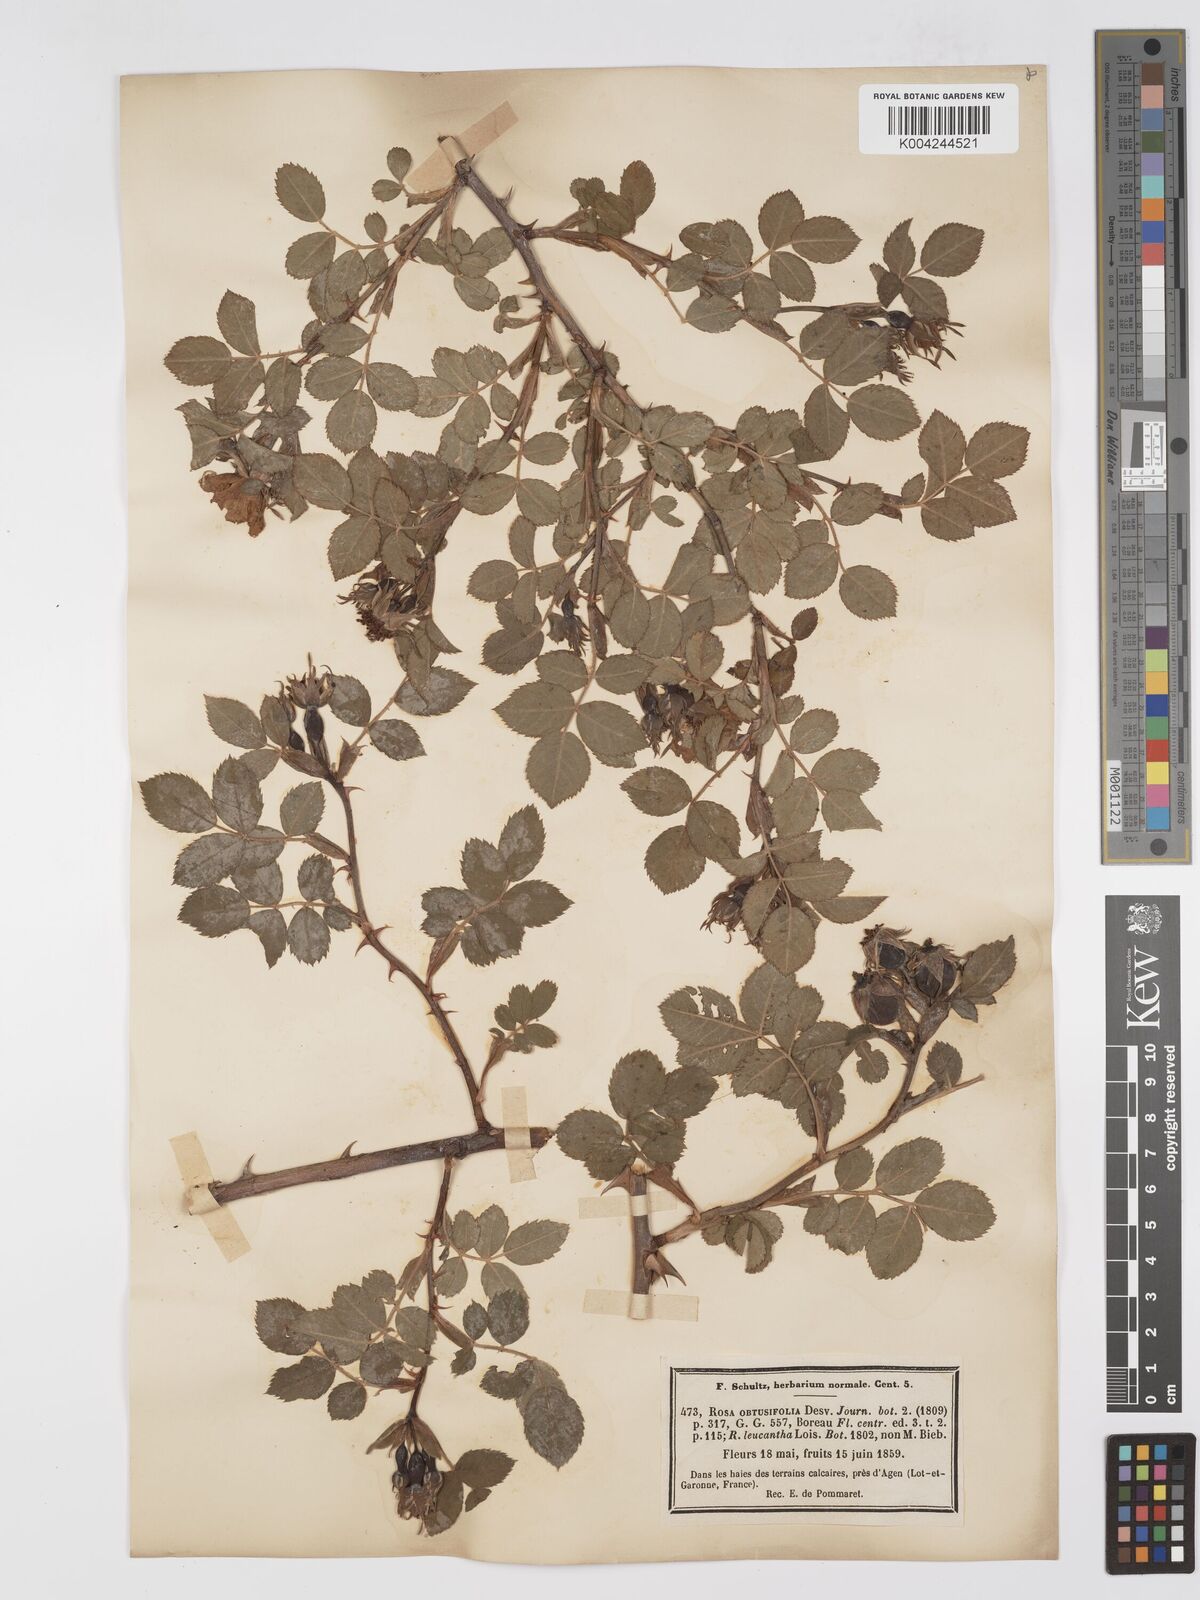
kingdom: Plantae
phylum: Tracheophyta
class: Magnoliopsida
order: Rosales
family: Rosaceae
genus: Rosa
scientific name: Rosa obtusifolia
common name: Round-leaved dog-rose
